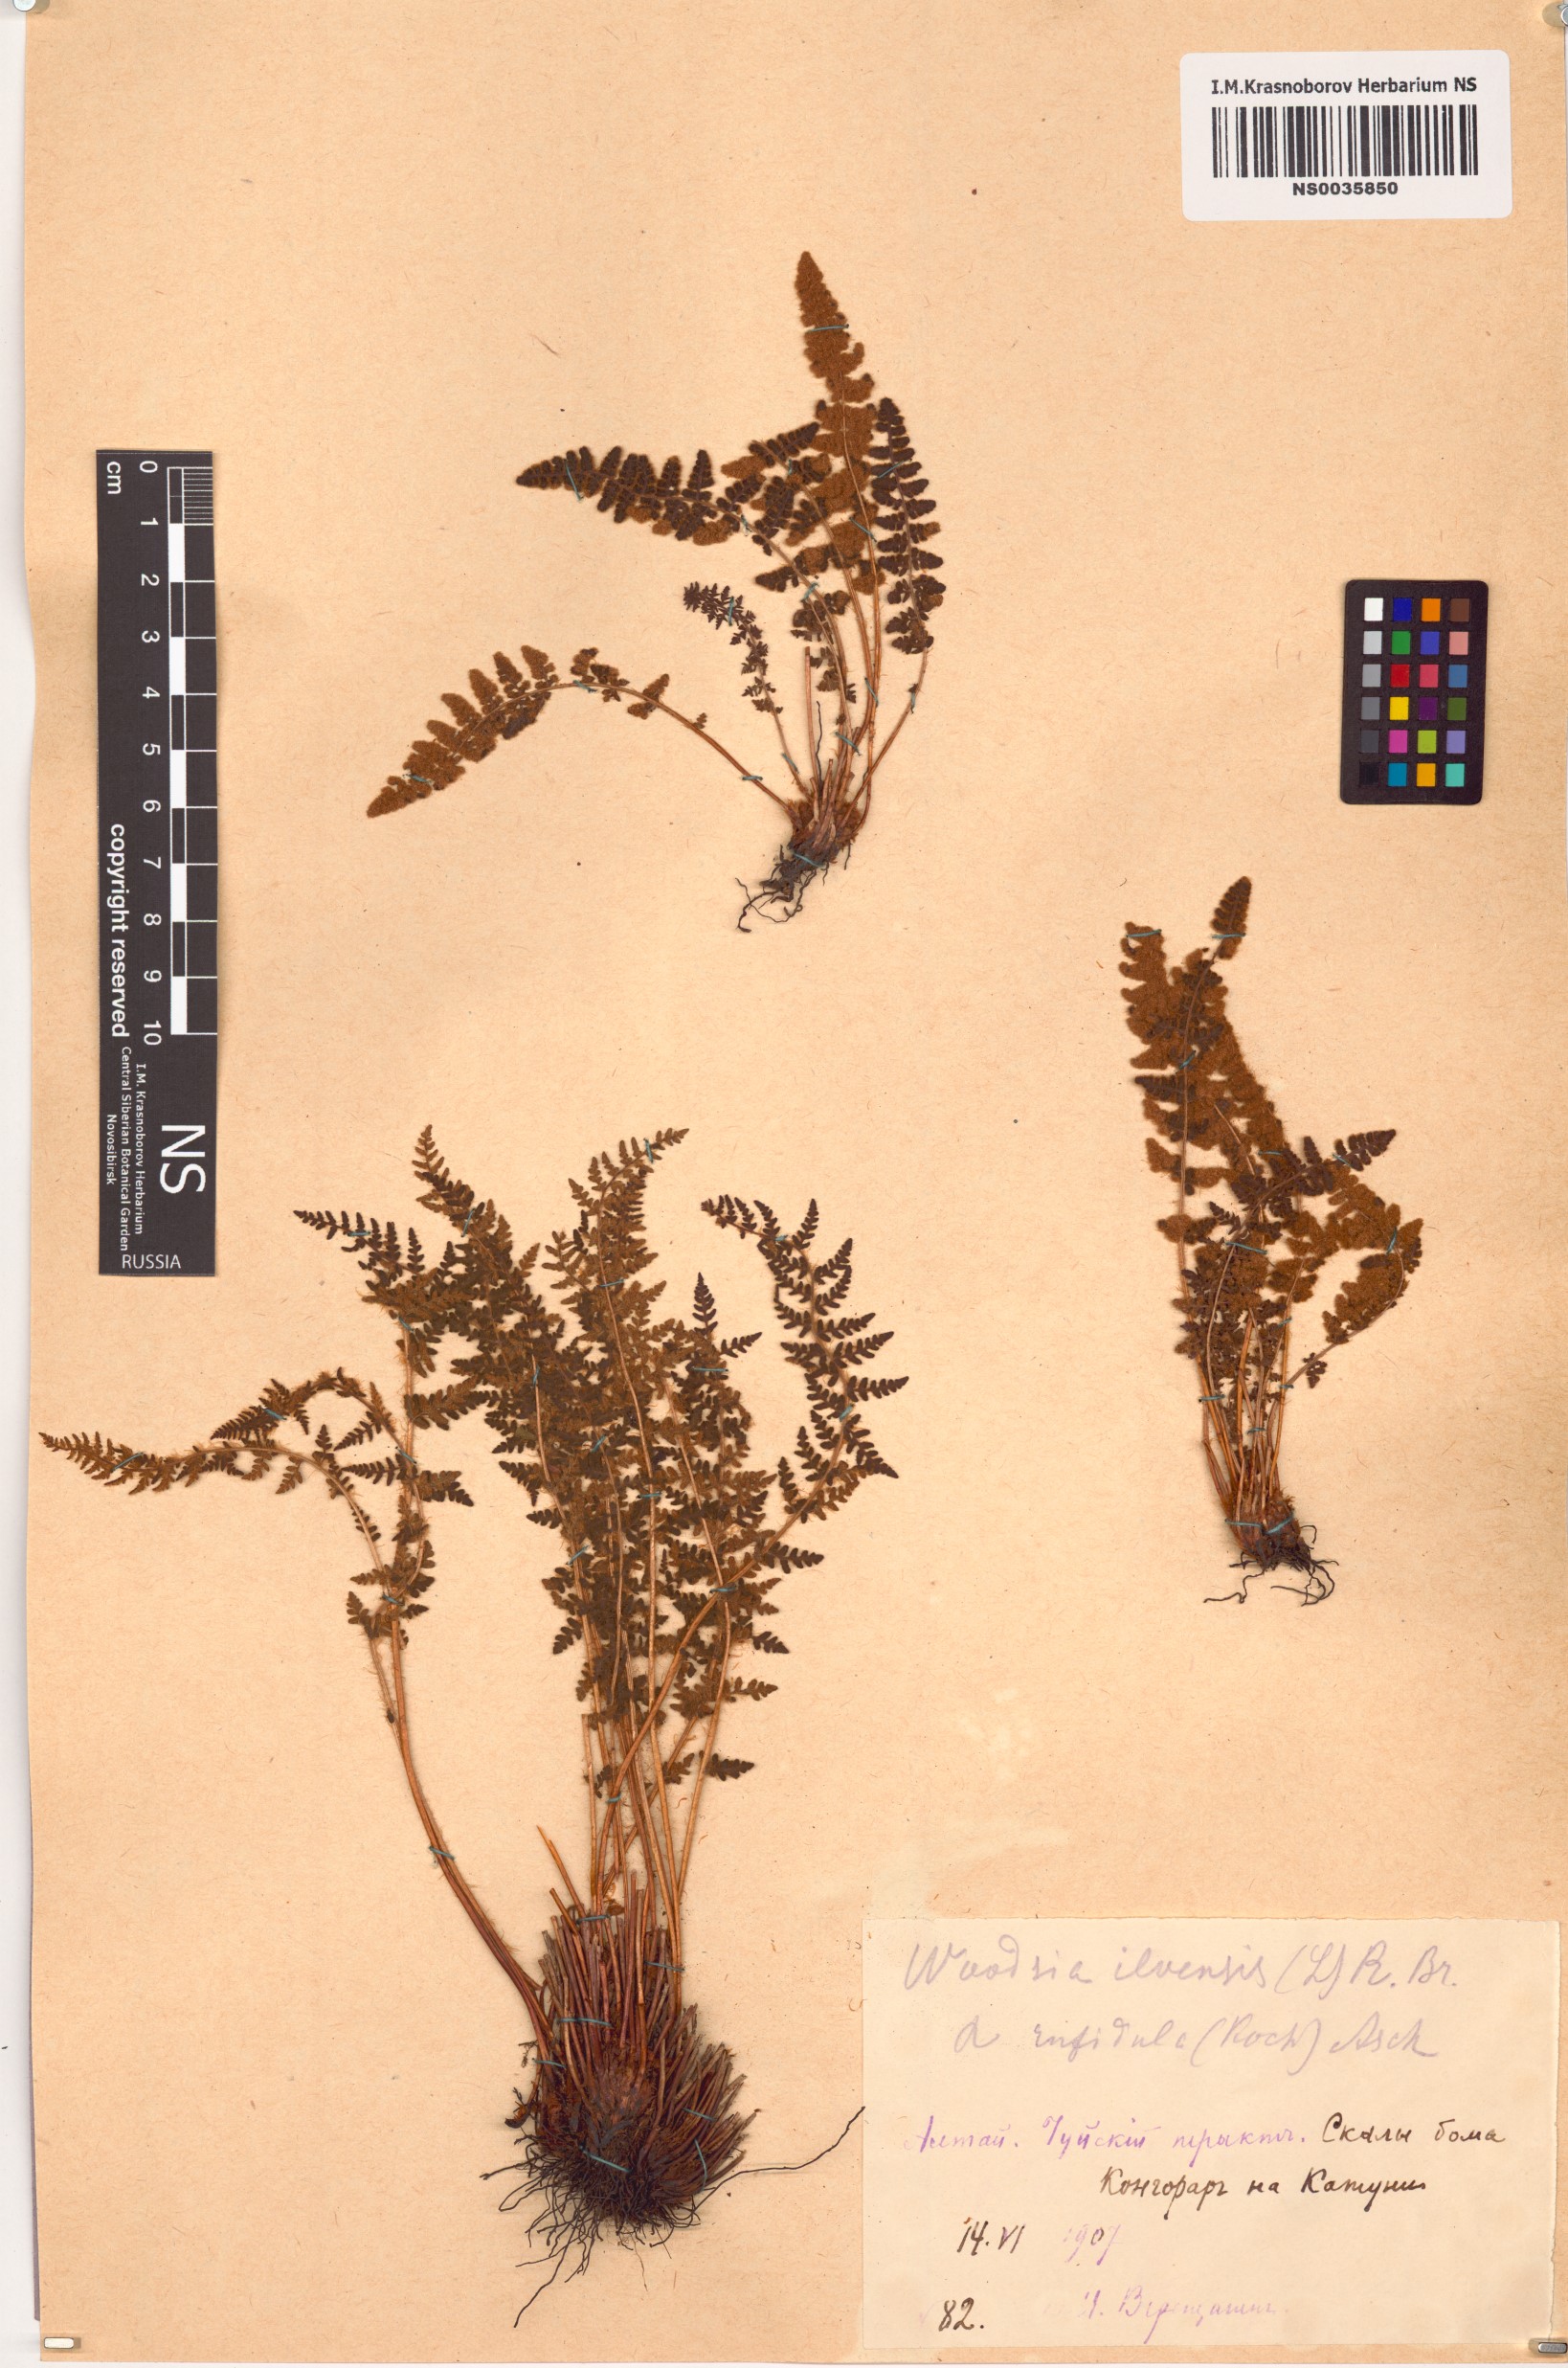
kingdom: Plantae
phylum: Tracheophyta
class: Polypodiopsida
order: Polypodiales
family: Woodsiaceae
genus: Woodsia
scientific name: Woodsia ilvensis
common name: Fragrant woodsia
